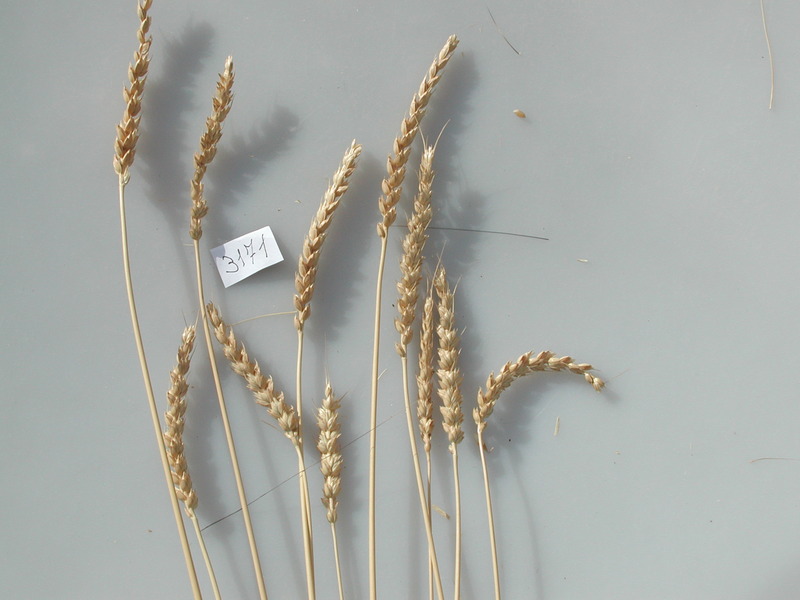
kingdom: Plantae
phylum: Tracheophyta
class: Liliopsida
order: Poales
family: Poaceae
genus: Triticum
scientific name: Triticum aestivum
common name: Wheat
